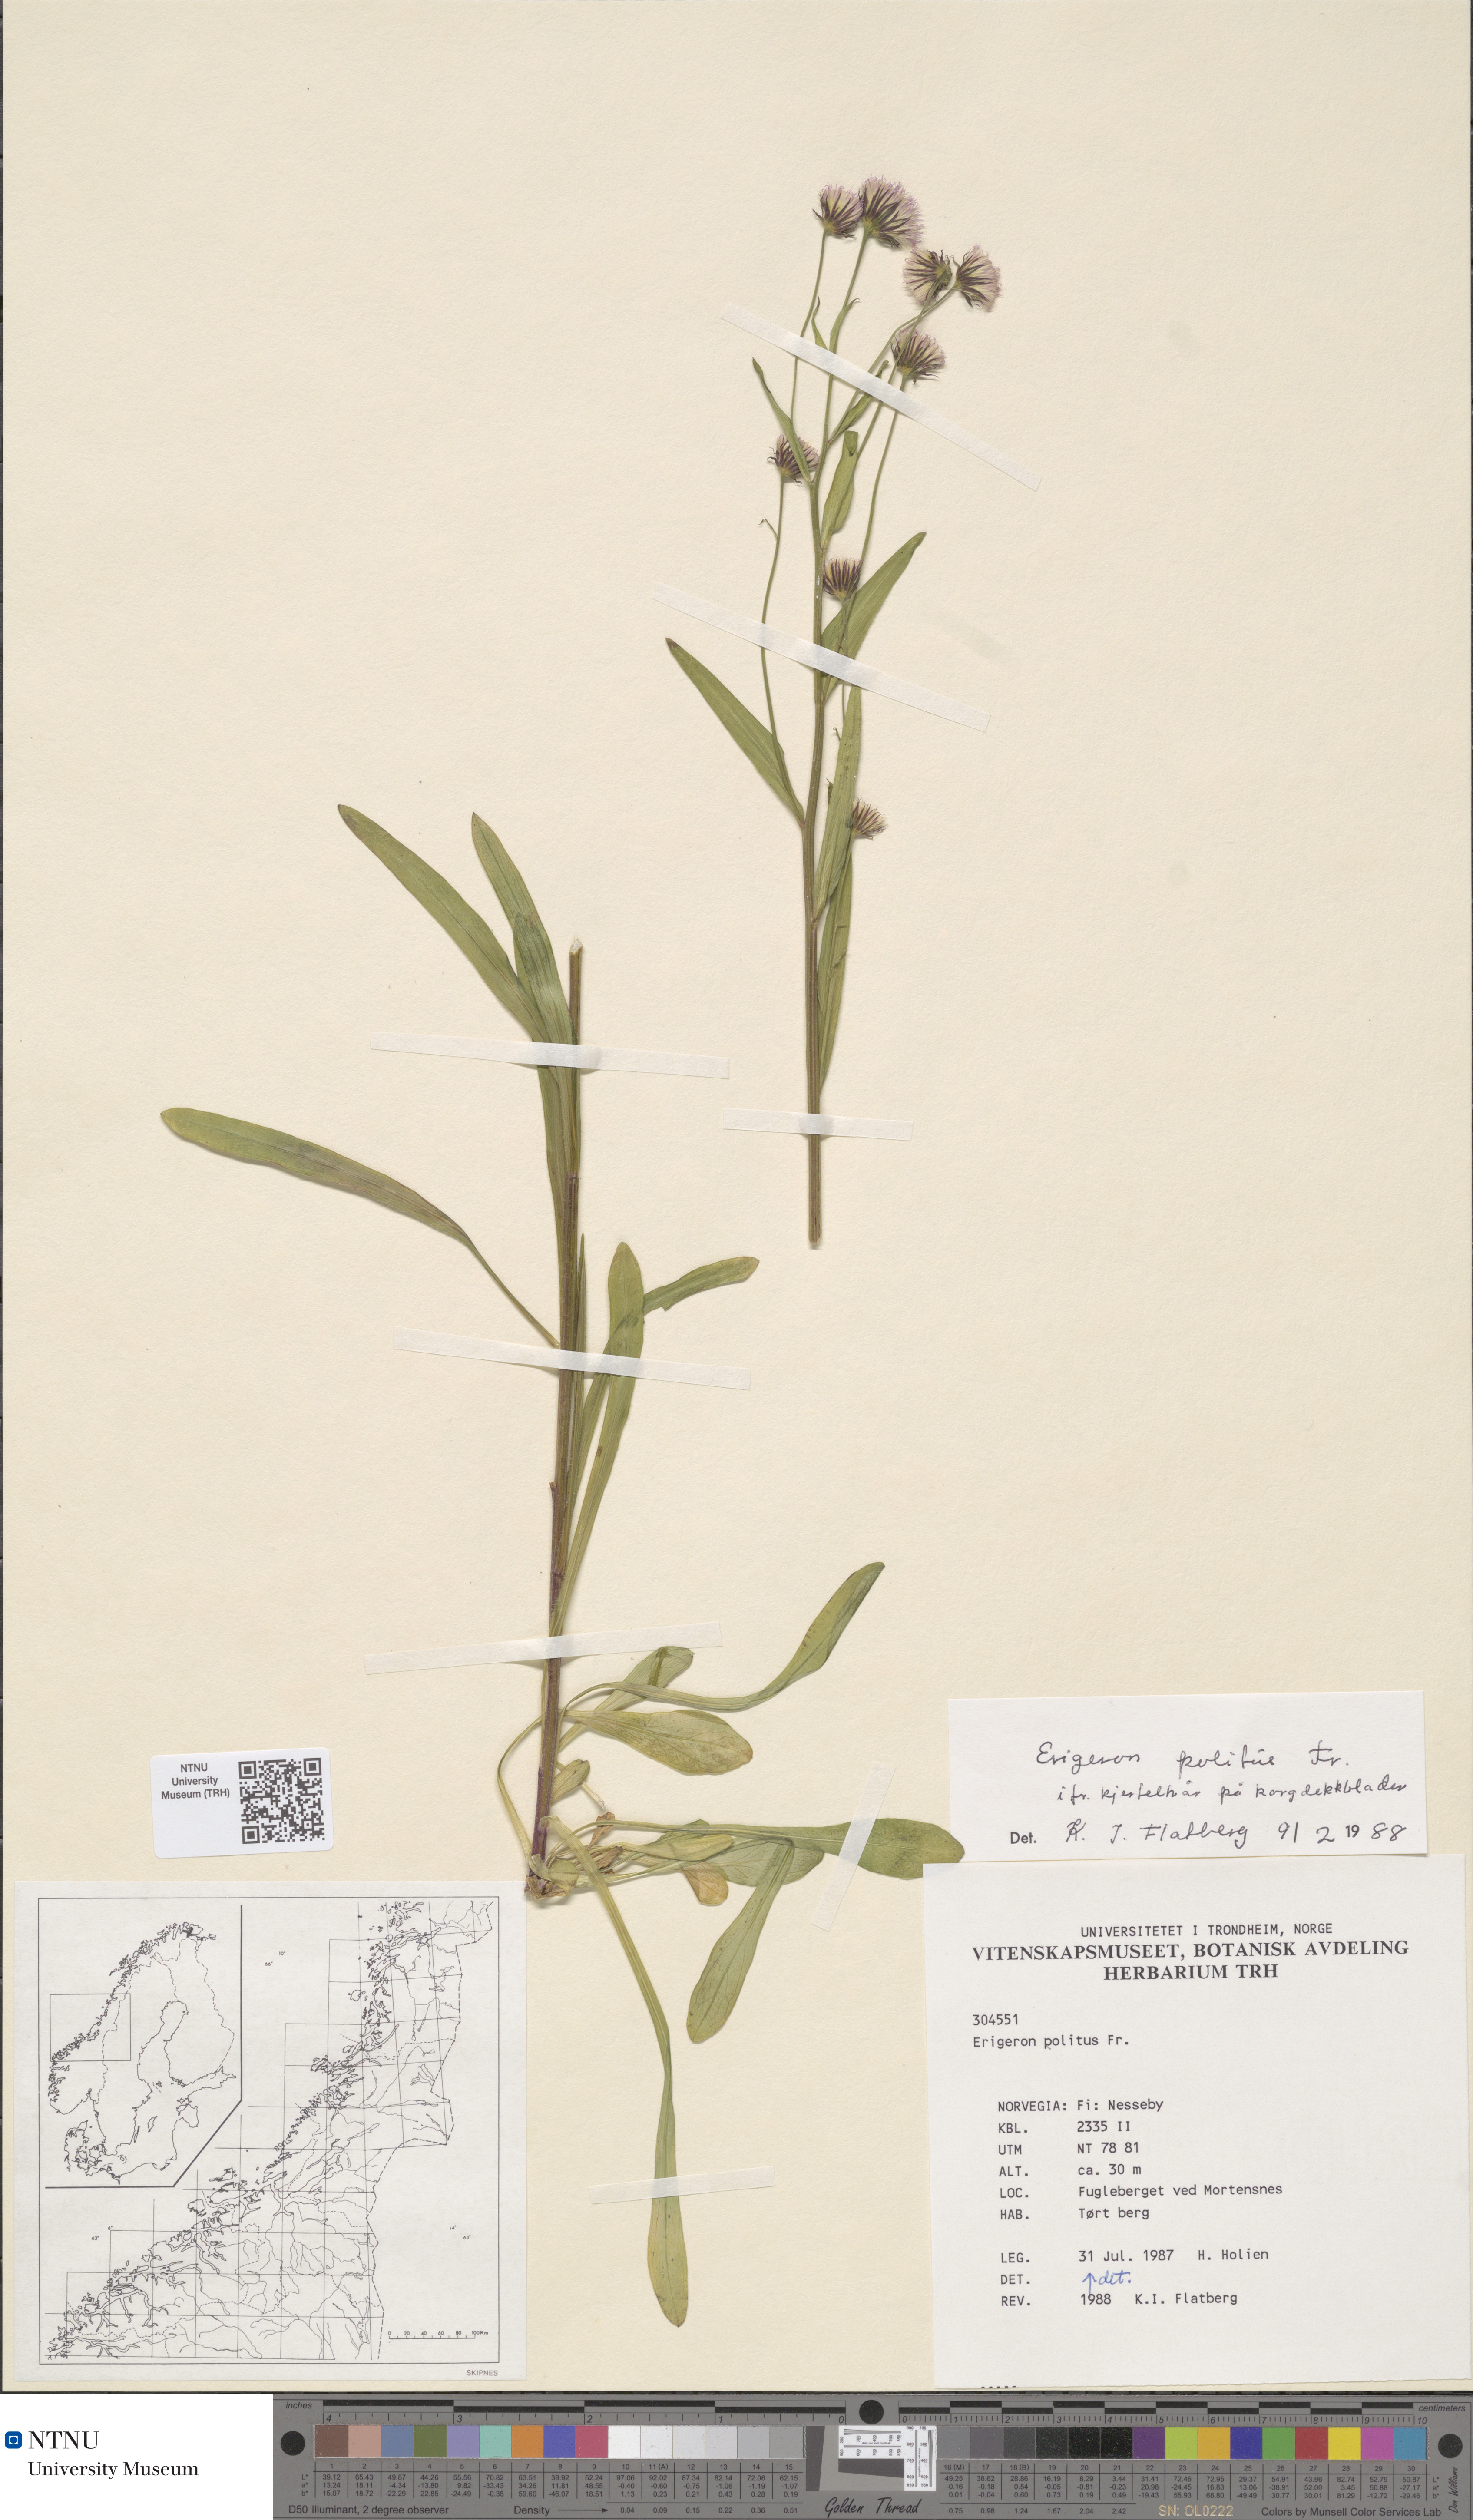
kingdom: Plantae
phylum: Tracheophyta
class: Magnoliopsida
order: Asterales
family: Asteraceae
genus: Erigeron
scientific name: Erigeron politus
